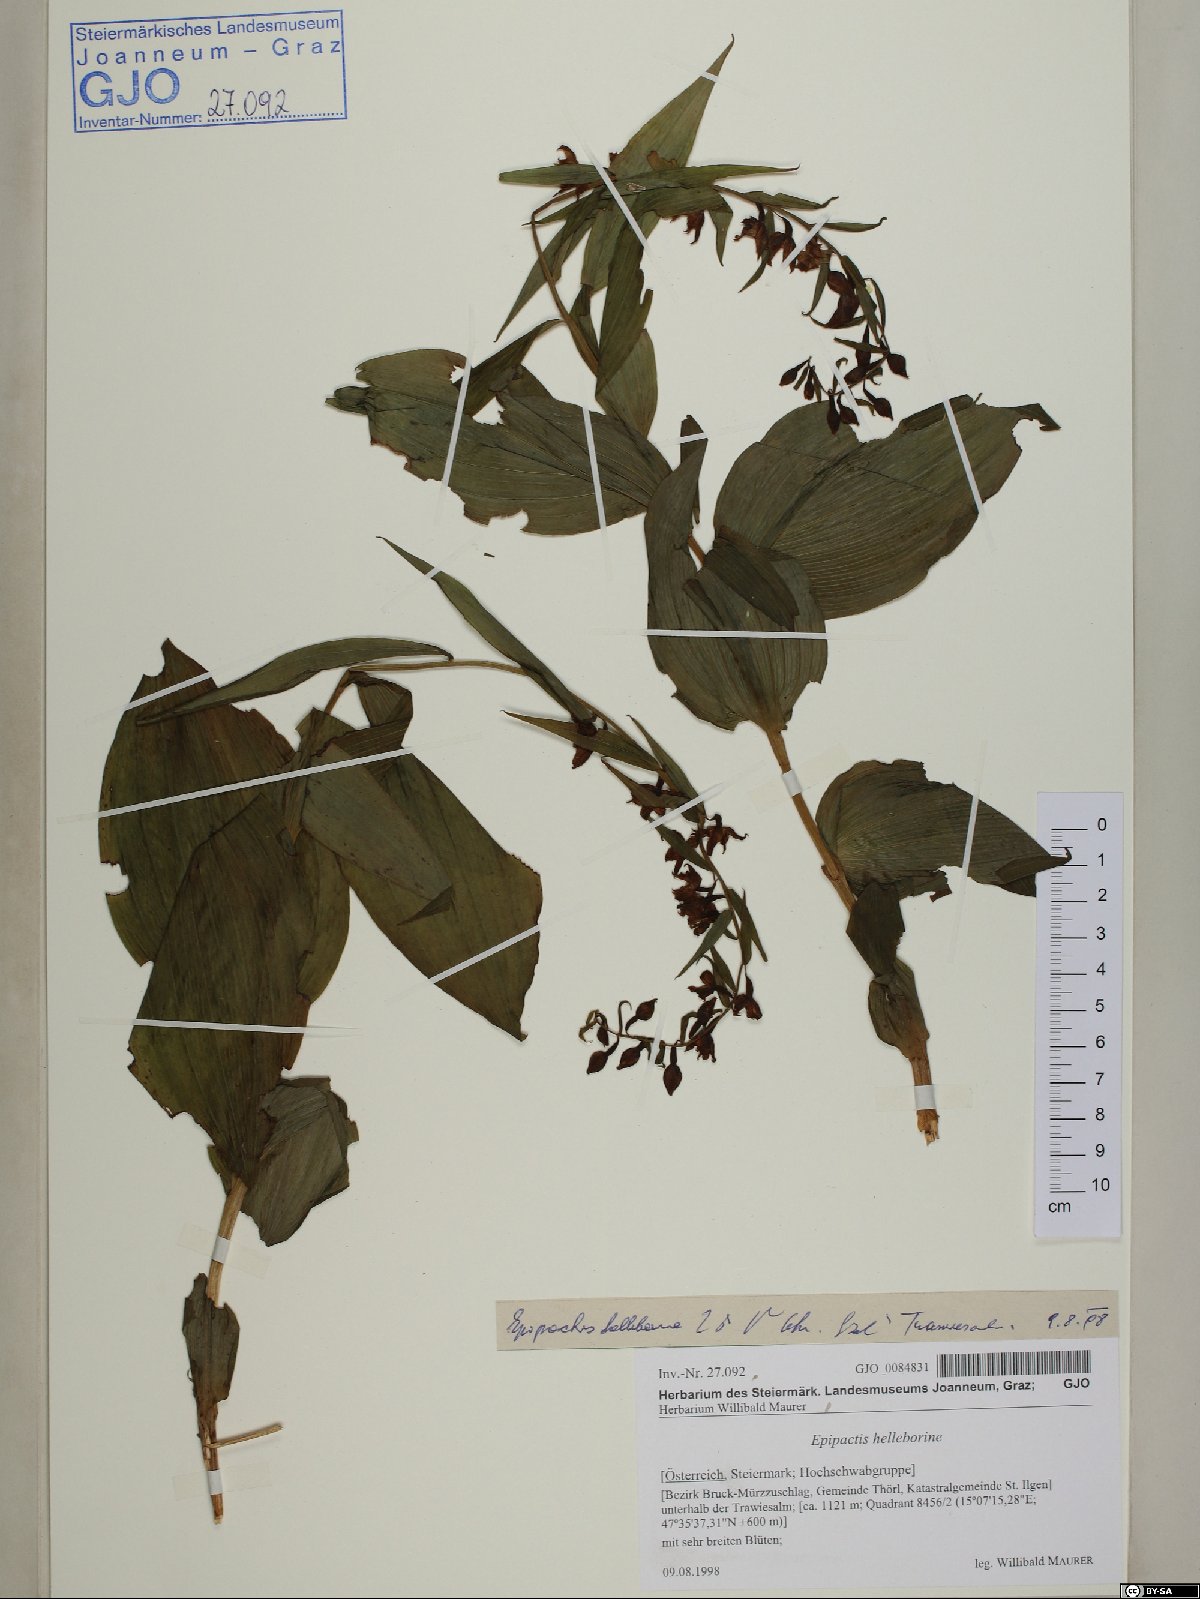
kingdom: Plantae
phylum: Tracheophyta
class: Liliopsida
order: Asparagales
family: Orchidaceae
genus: Epipactis
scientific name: Epipactis helleborine
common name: Broad-leaved helleborine
